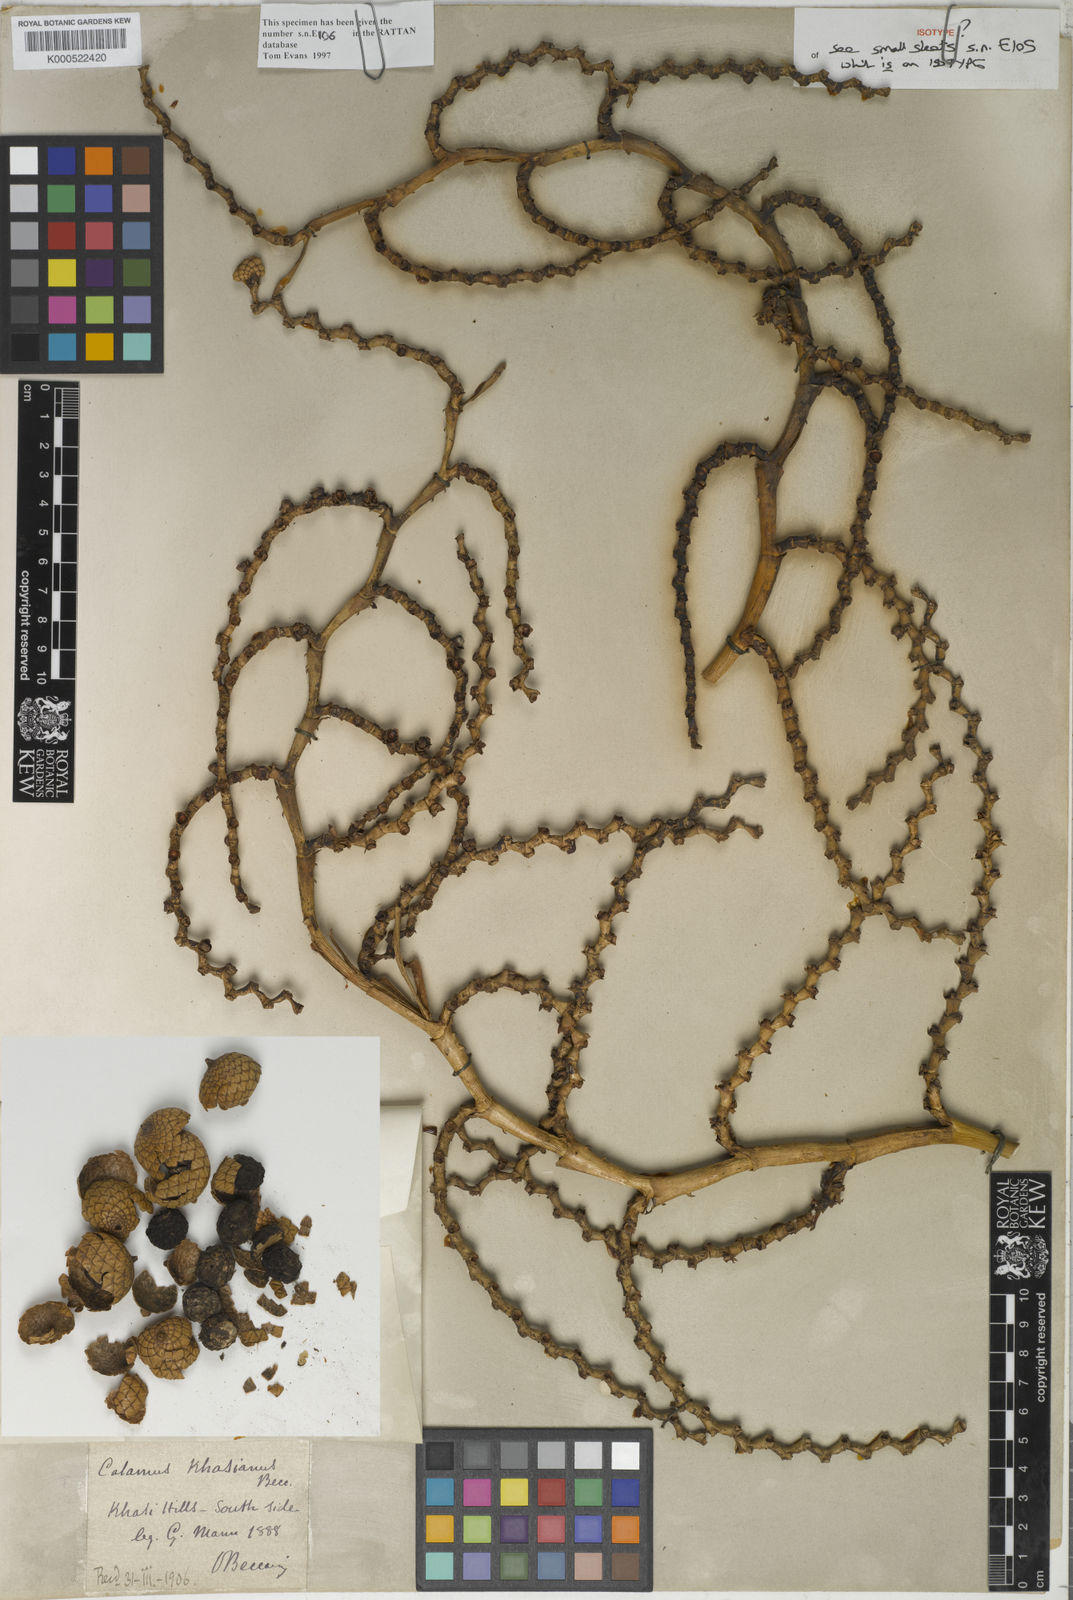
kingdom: Plantae
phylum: Tracheophyta
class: Liliopsida
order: Arecales
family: Arecaceae
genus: Calamus
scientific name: Calamus inermis
